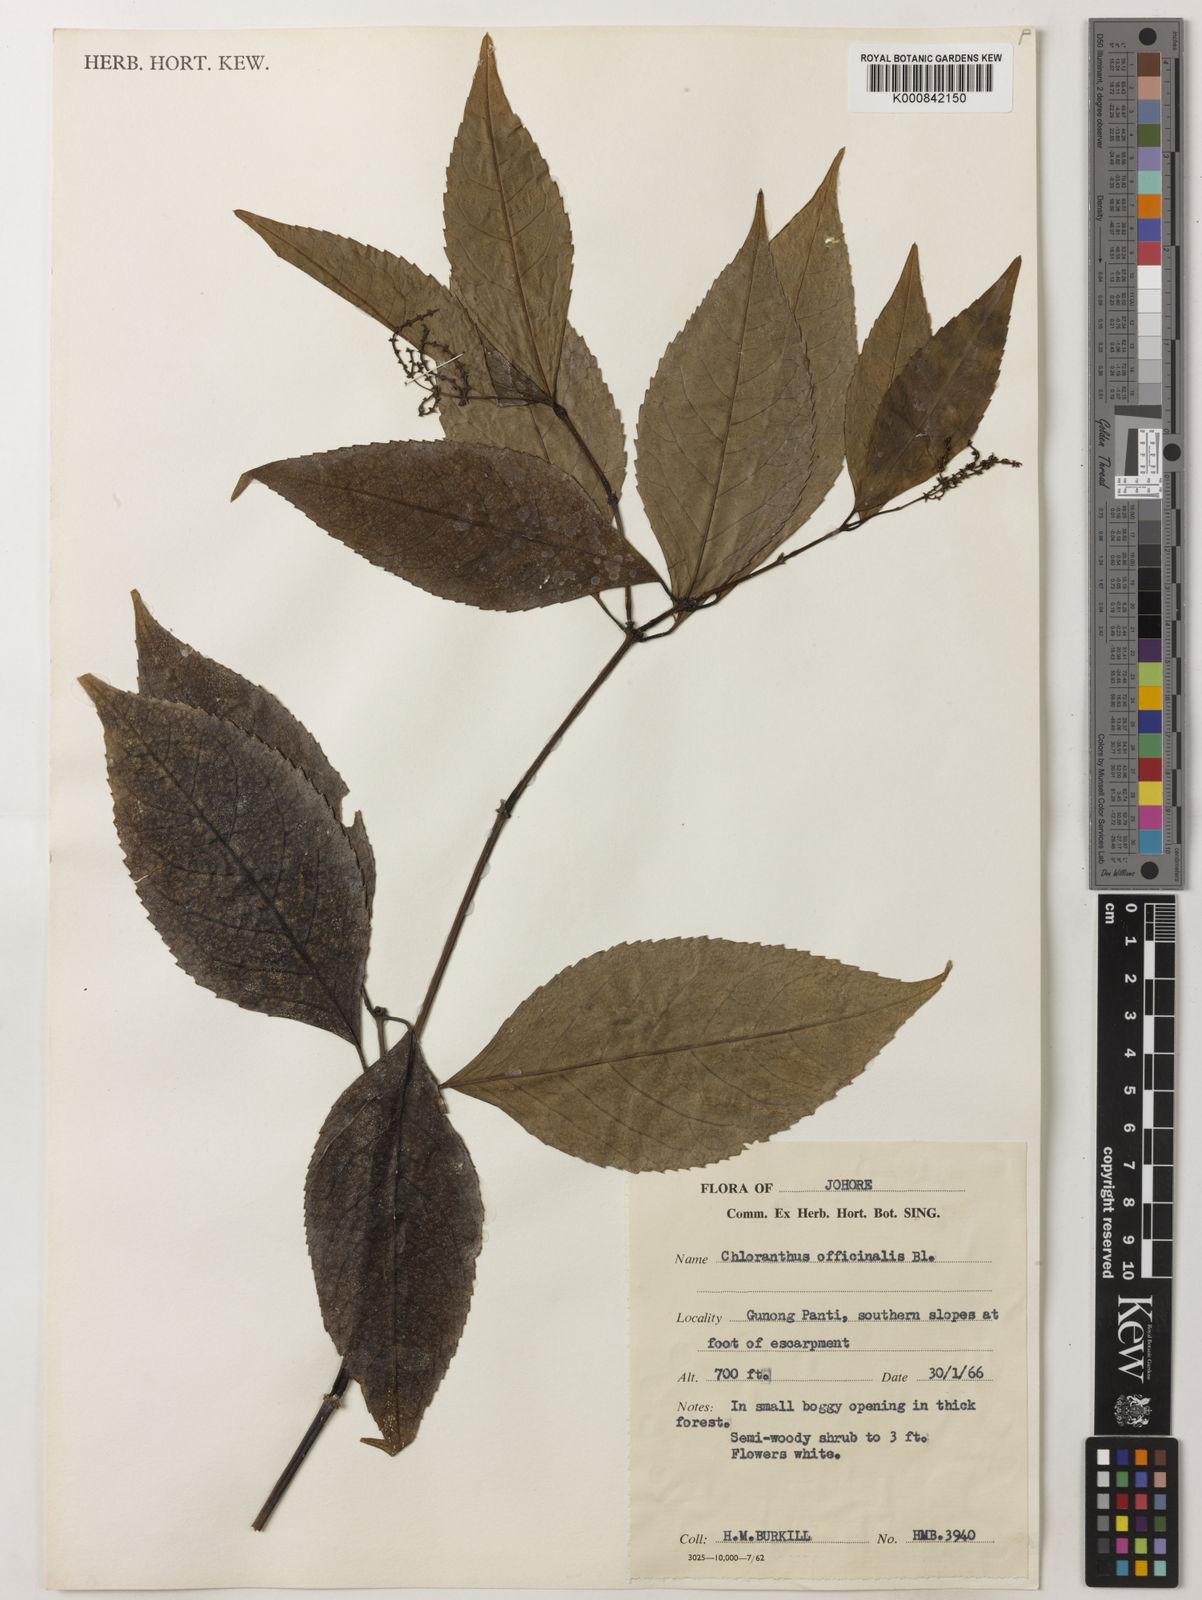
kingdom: Plantae
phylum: Tracheophyta
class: Magnoliopsida
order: Chloranthales
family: Chloranthaceae
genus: Chloranthus
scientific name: Chloranthus
